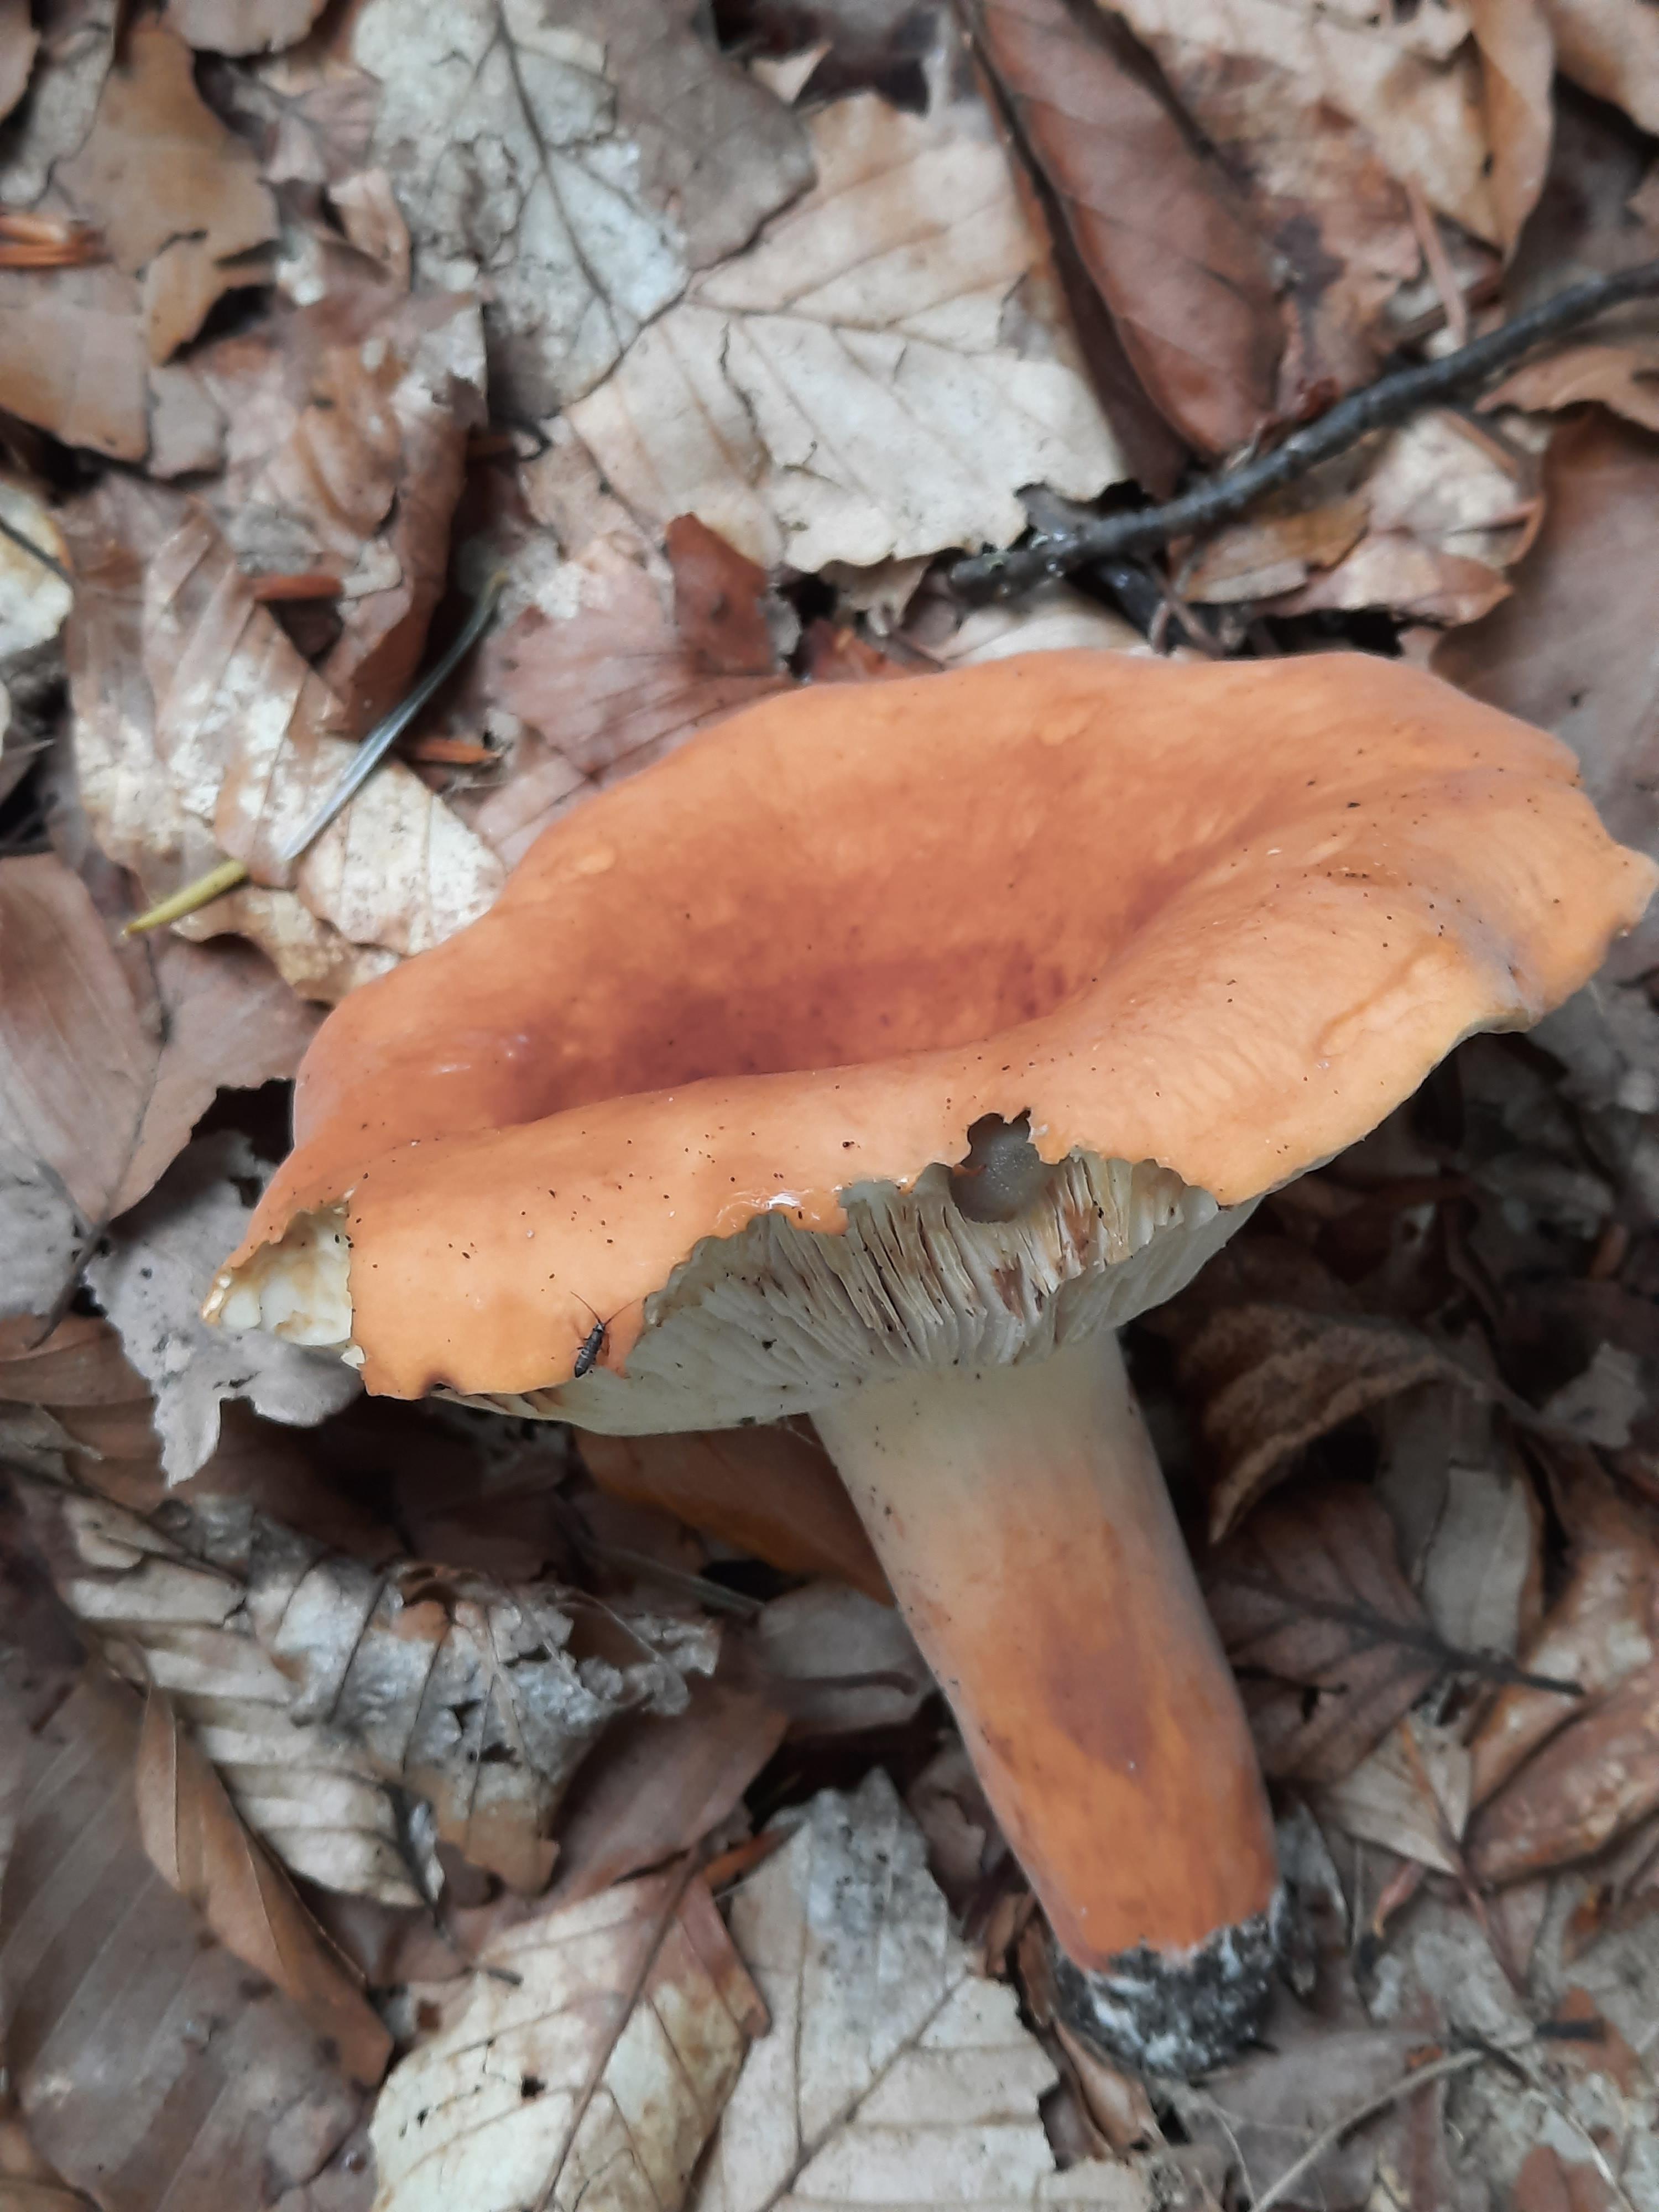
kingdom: Fungi
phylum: Basidiomycota
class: Agaricomycetes
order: Russulales
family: Russulaceae
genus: Lactifluus
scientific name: Lactifluus volemus
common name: spiselig mælkehat
